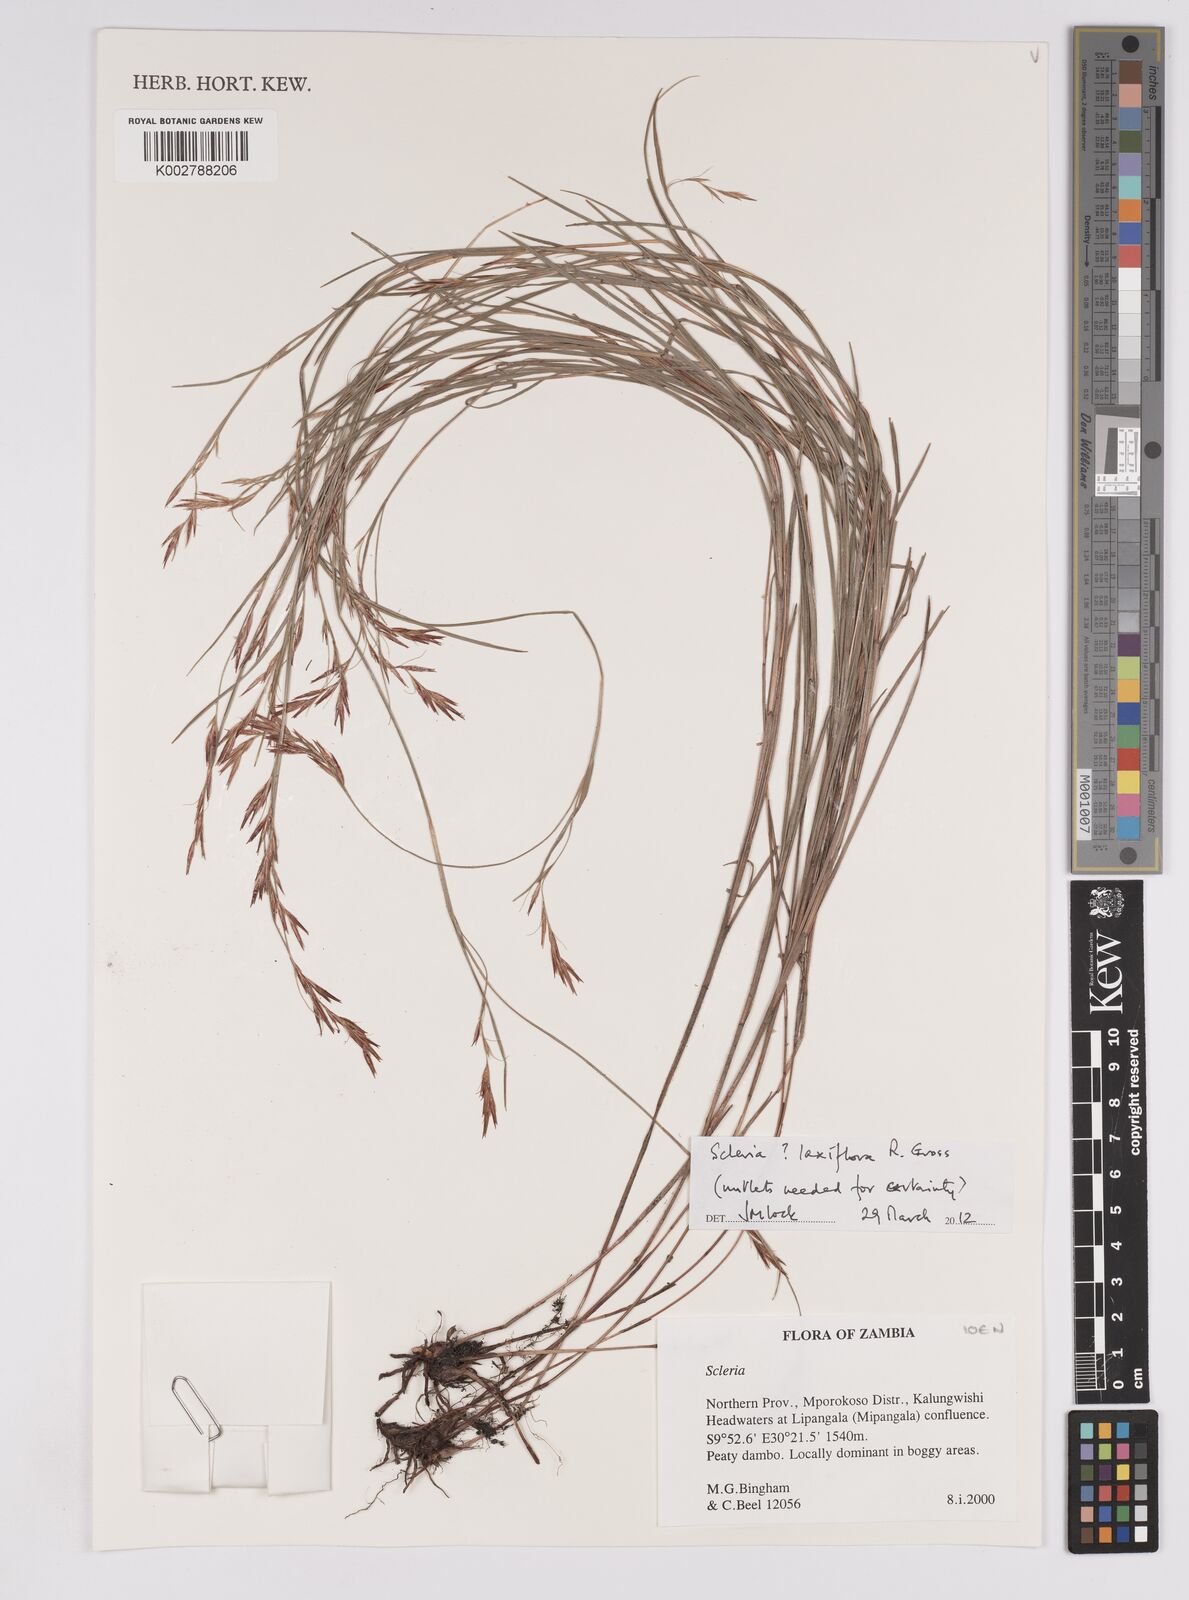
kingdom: Plantae
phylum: Tracheophyta
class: Liliopsida
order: Poales
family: Cyperaceae
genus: Scleria
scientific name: Scleria laxiflora
